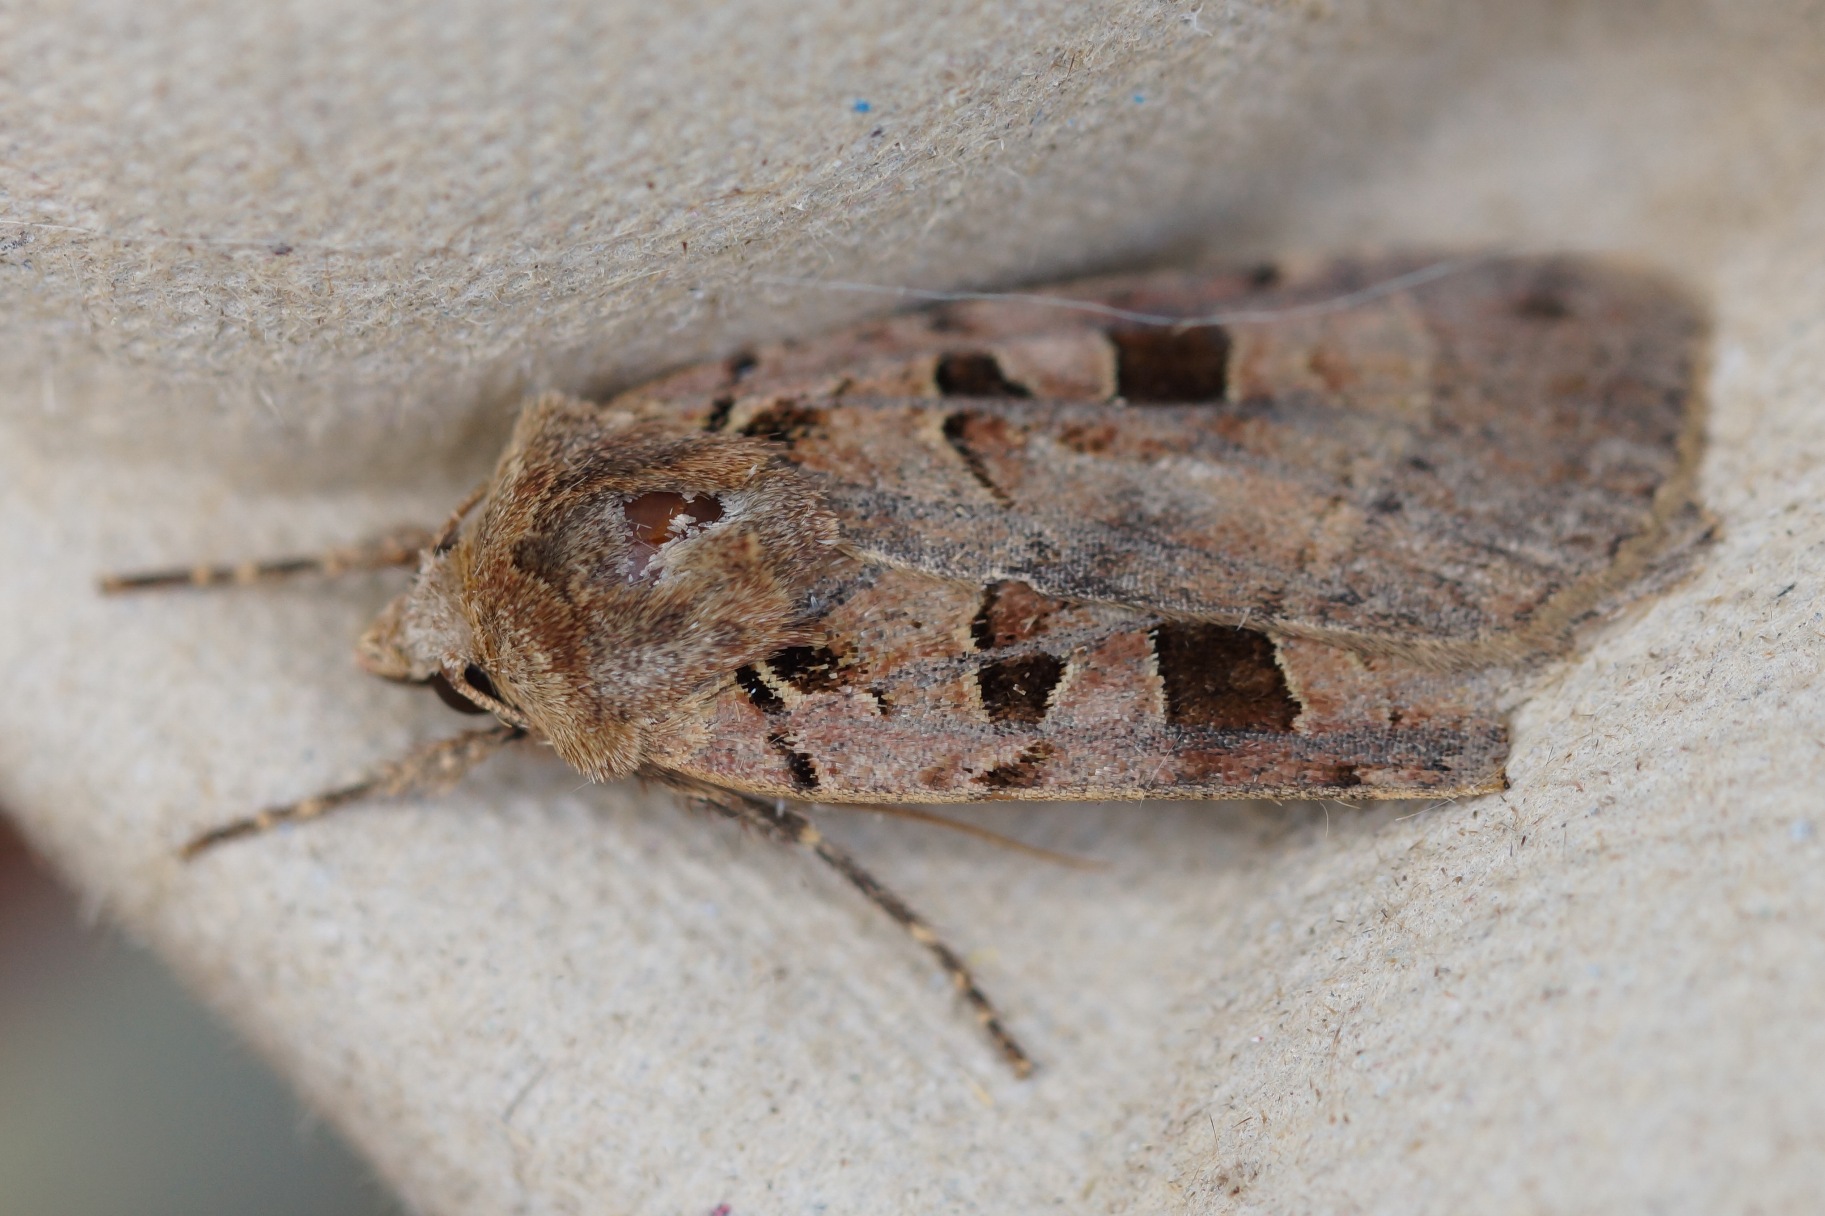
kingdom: Animalia
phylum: Arthropoda
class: Insecta
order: Lepidoptera
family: Noctuidae
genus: Xestia
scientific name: Xestia triangulum
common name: Sortplettet skovugle
